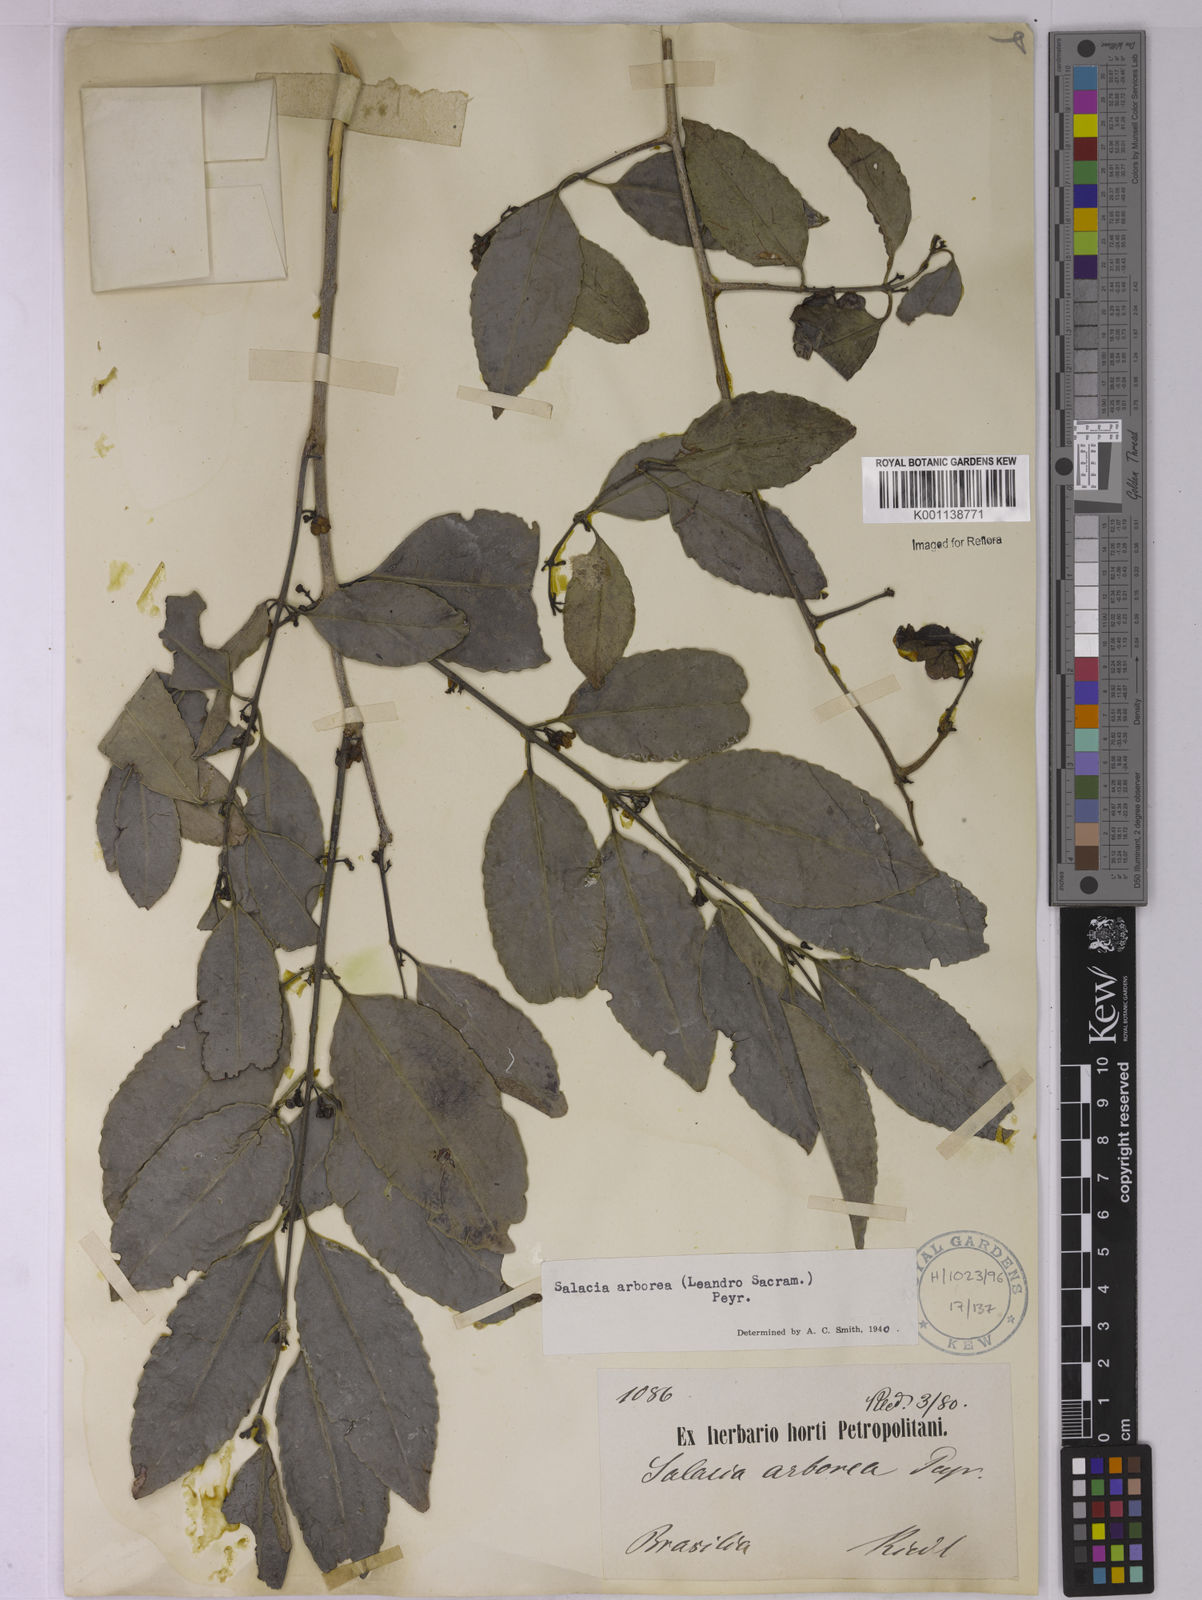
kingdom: Plantae
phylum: Tracheophyta
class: Magnoliopsida
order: Celastrales
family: Celastraceae
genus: Salacia
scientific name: Salacia arborea
